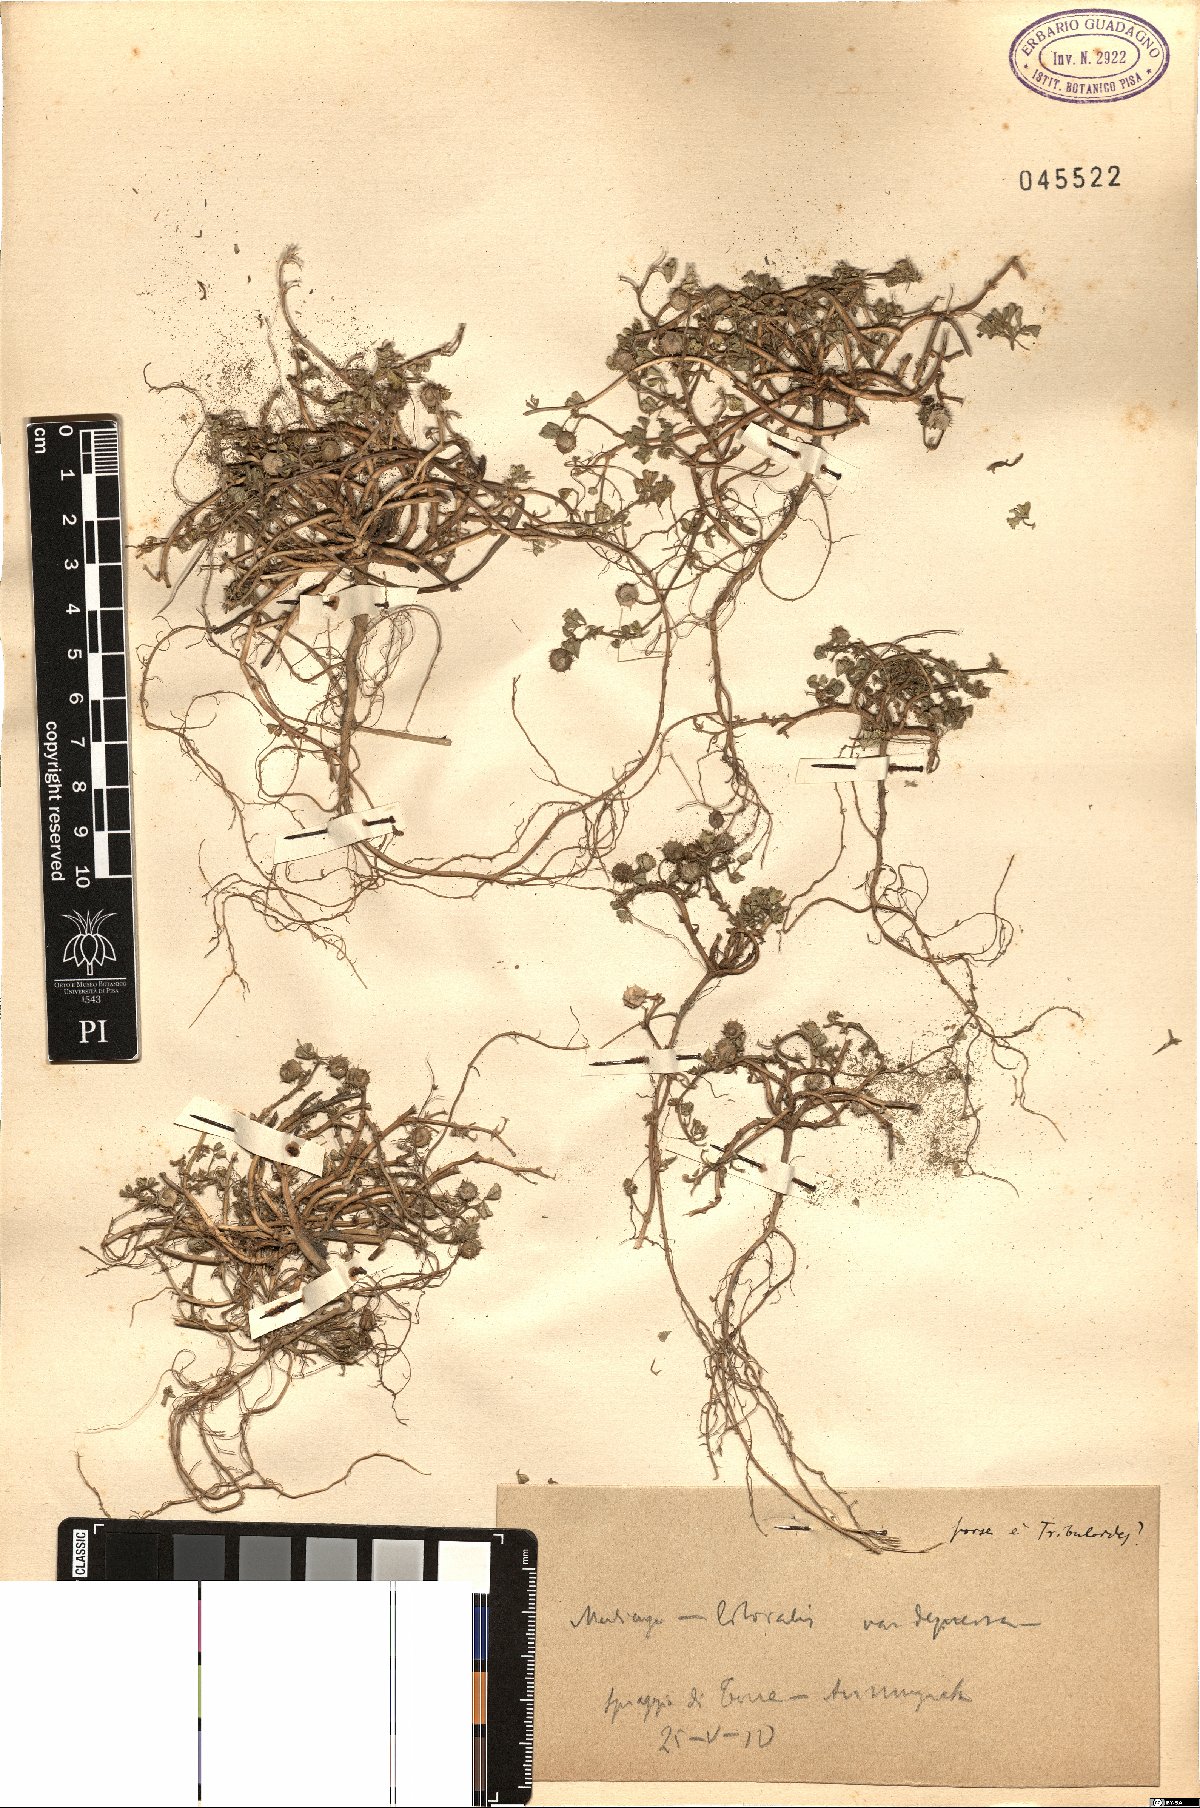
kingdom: Plantae
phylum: Tracheophyta
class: Magnoliopsida
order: Fabales
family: Fabaceae
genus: Medicago
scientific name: Medicago littoralis
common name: Shore medick
